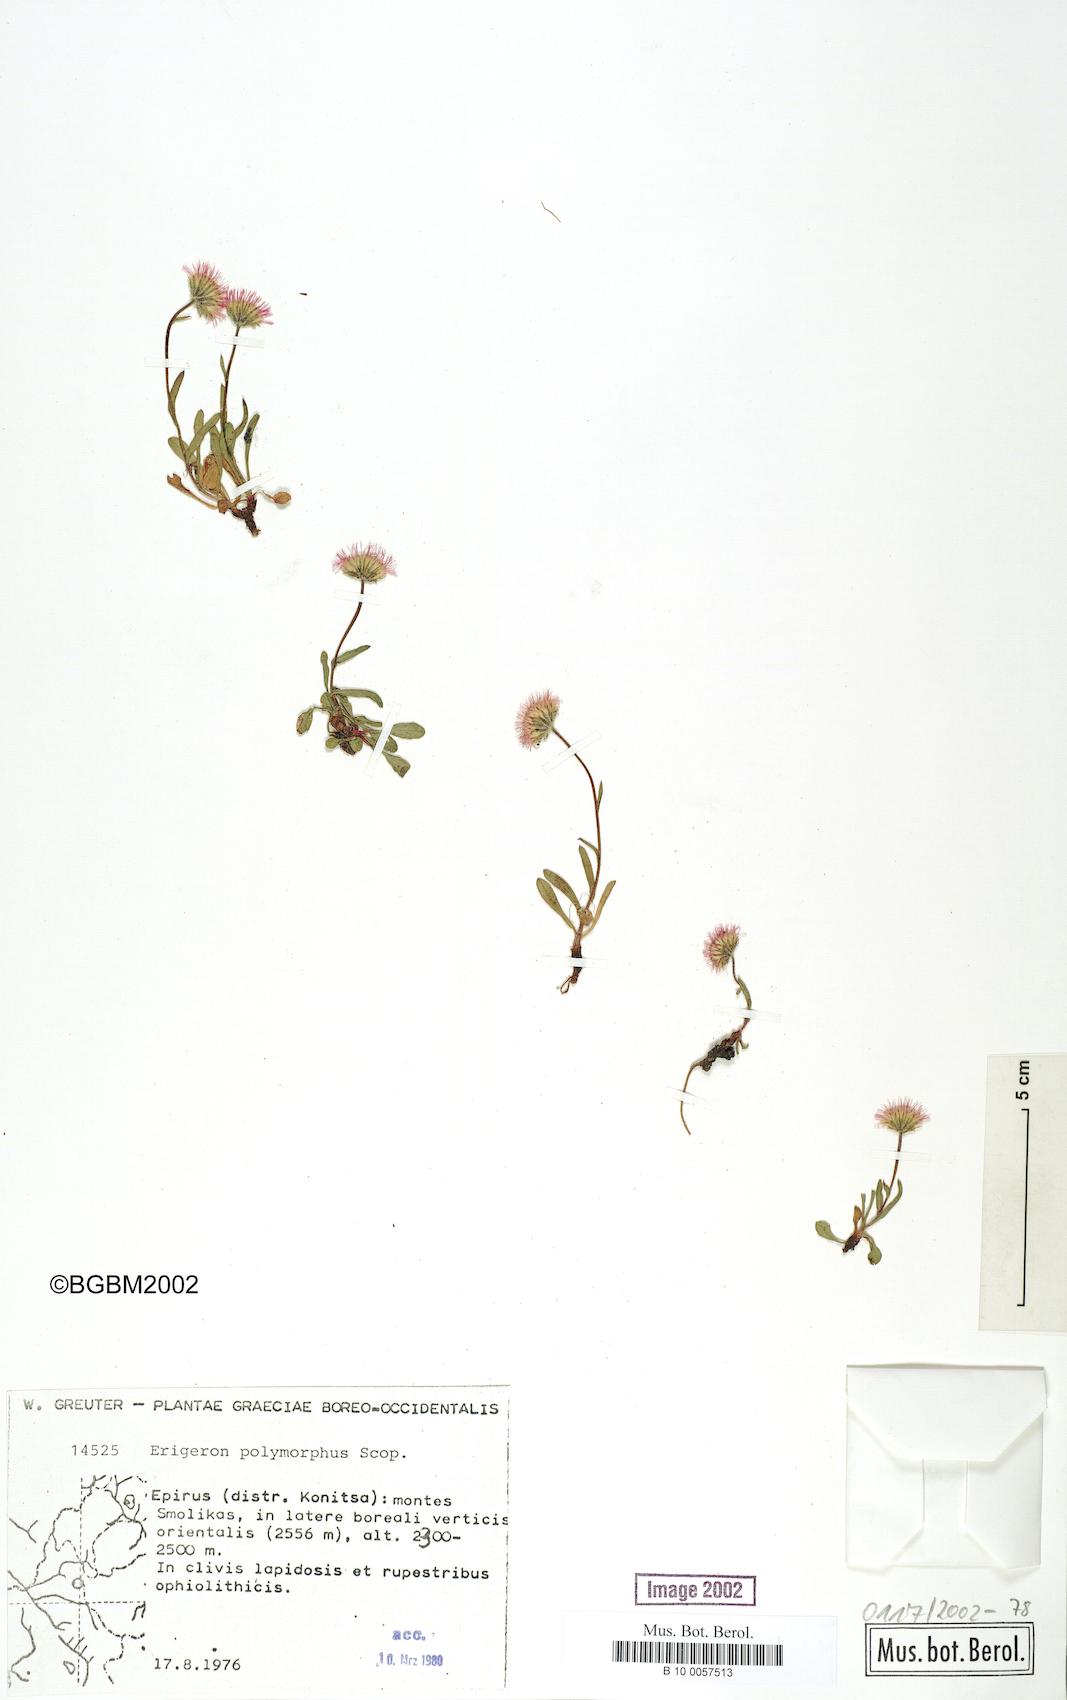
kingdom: Plantae
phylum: Tracheophyta
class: Magnoliopsida
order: Asterales
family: Asteraceae
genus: Erigeron
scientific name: Erigeron alpinus
